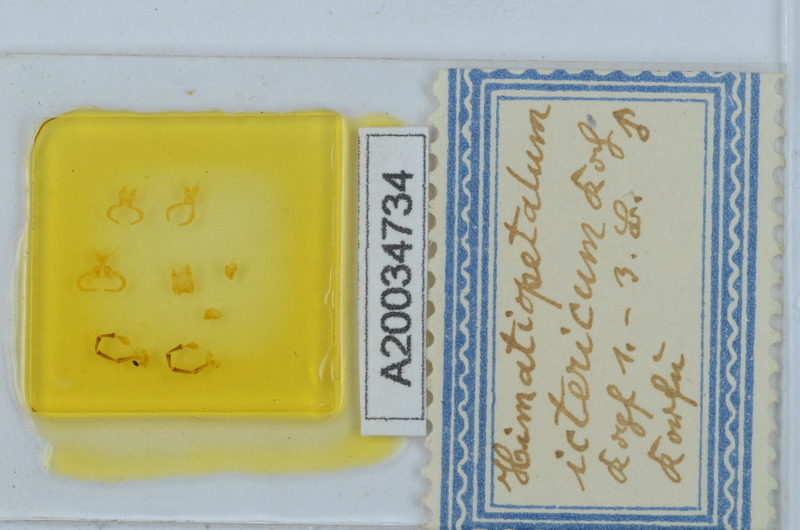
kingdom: Animalia
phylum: Arthropoda
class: Diplopoda
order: Callipodida
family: Schizopetalidae
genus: Himatiopetalum
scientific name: Himatiopetalum ictericum
